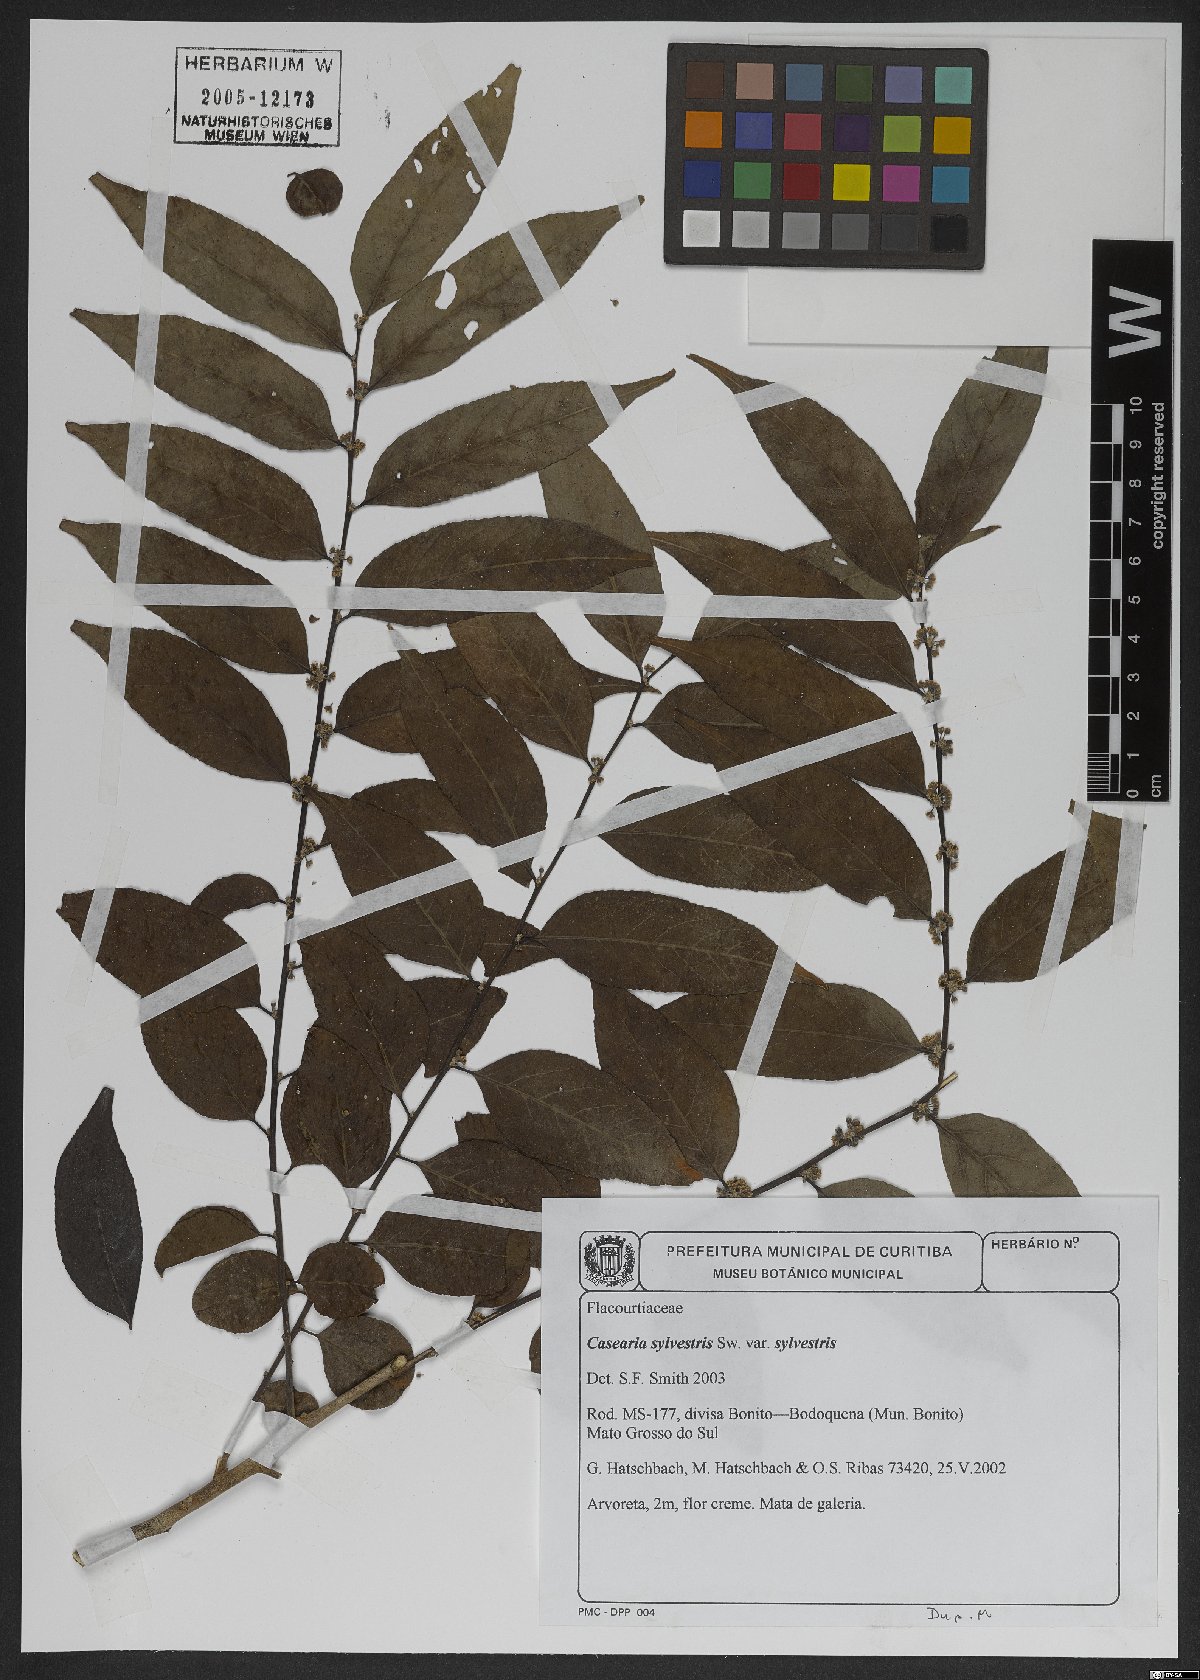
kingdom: Plantae
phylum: Tracheophyta
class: Magnoliopsida
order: Malpighiales
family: Salicaceae
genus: Casearia
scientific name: Casearia sylvestris
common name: Wild sage
